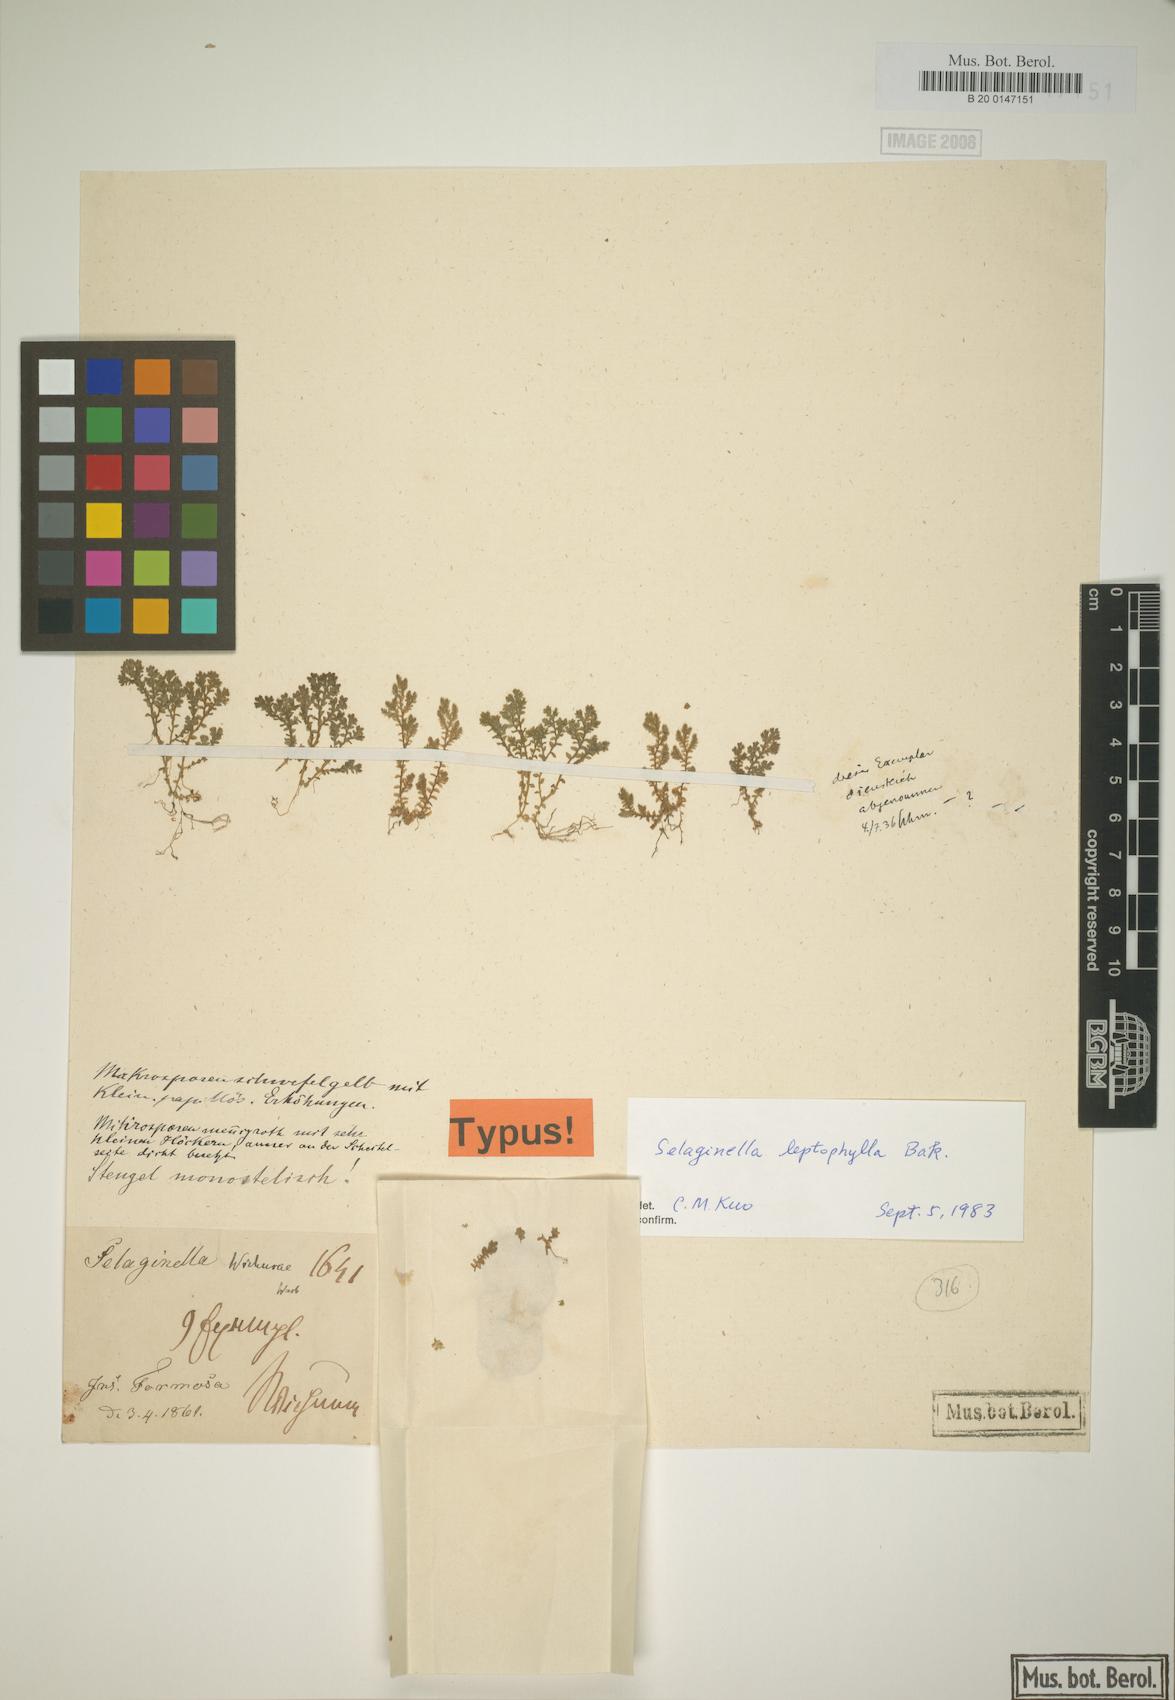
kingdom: Plantae
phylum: Tracheophyta
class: Lycopodiopsida
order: Selaginellales
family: Selaginellaceae
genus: Selaginella
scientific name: Selaginella leptophylla
